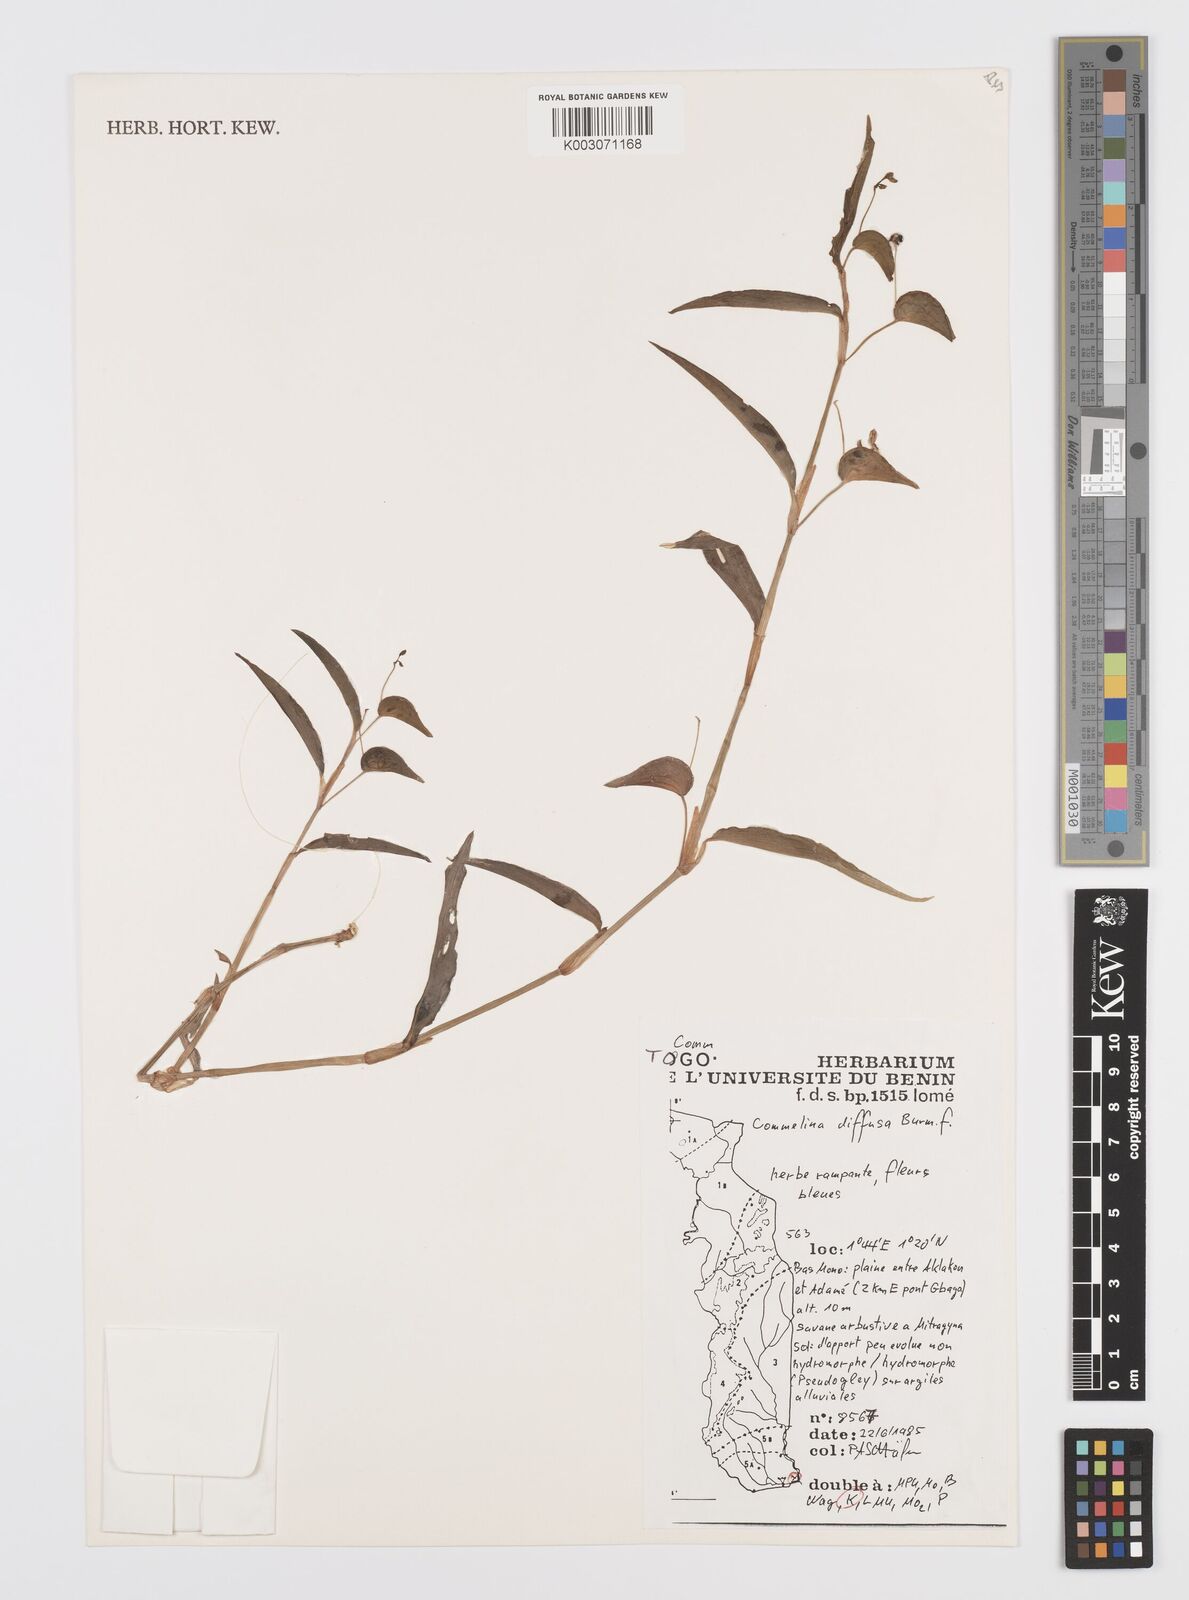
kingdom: Plantae
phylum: Tracheophyta
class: Liliopsida
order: Commelinales
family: Commelinaceae
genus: Commelina
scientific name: Commelina diffusa
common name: Climbing dayflower
